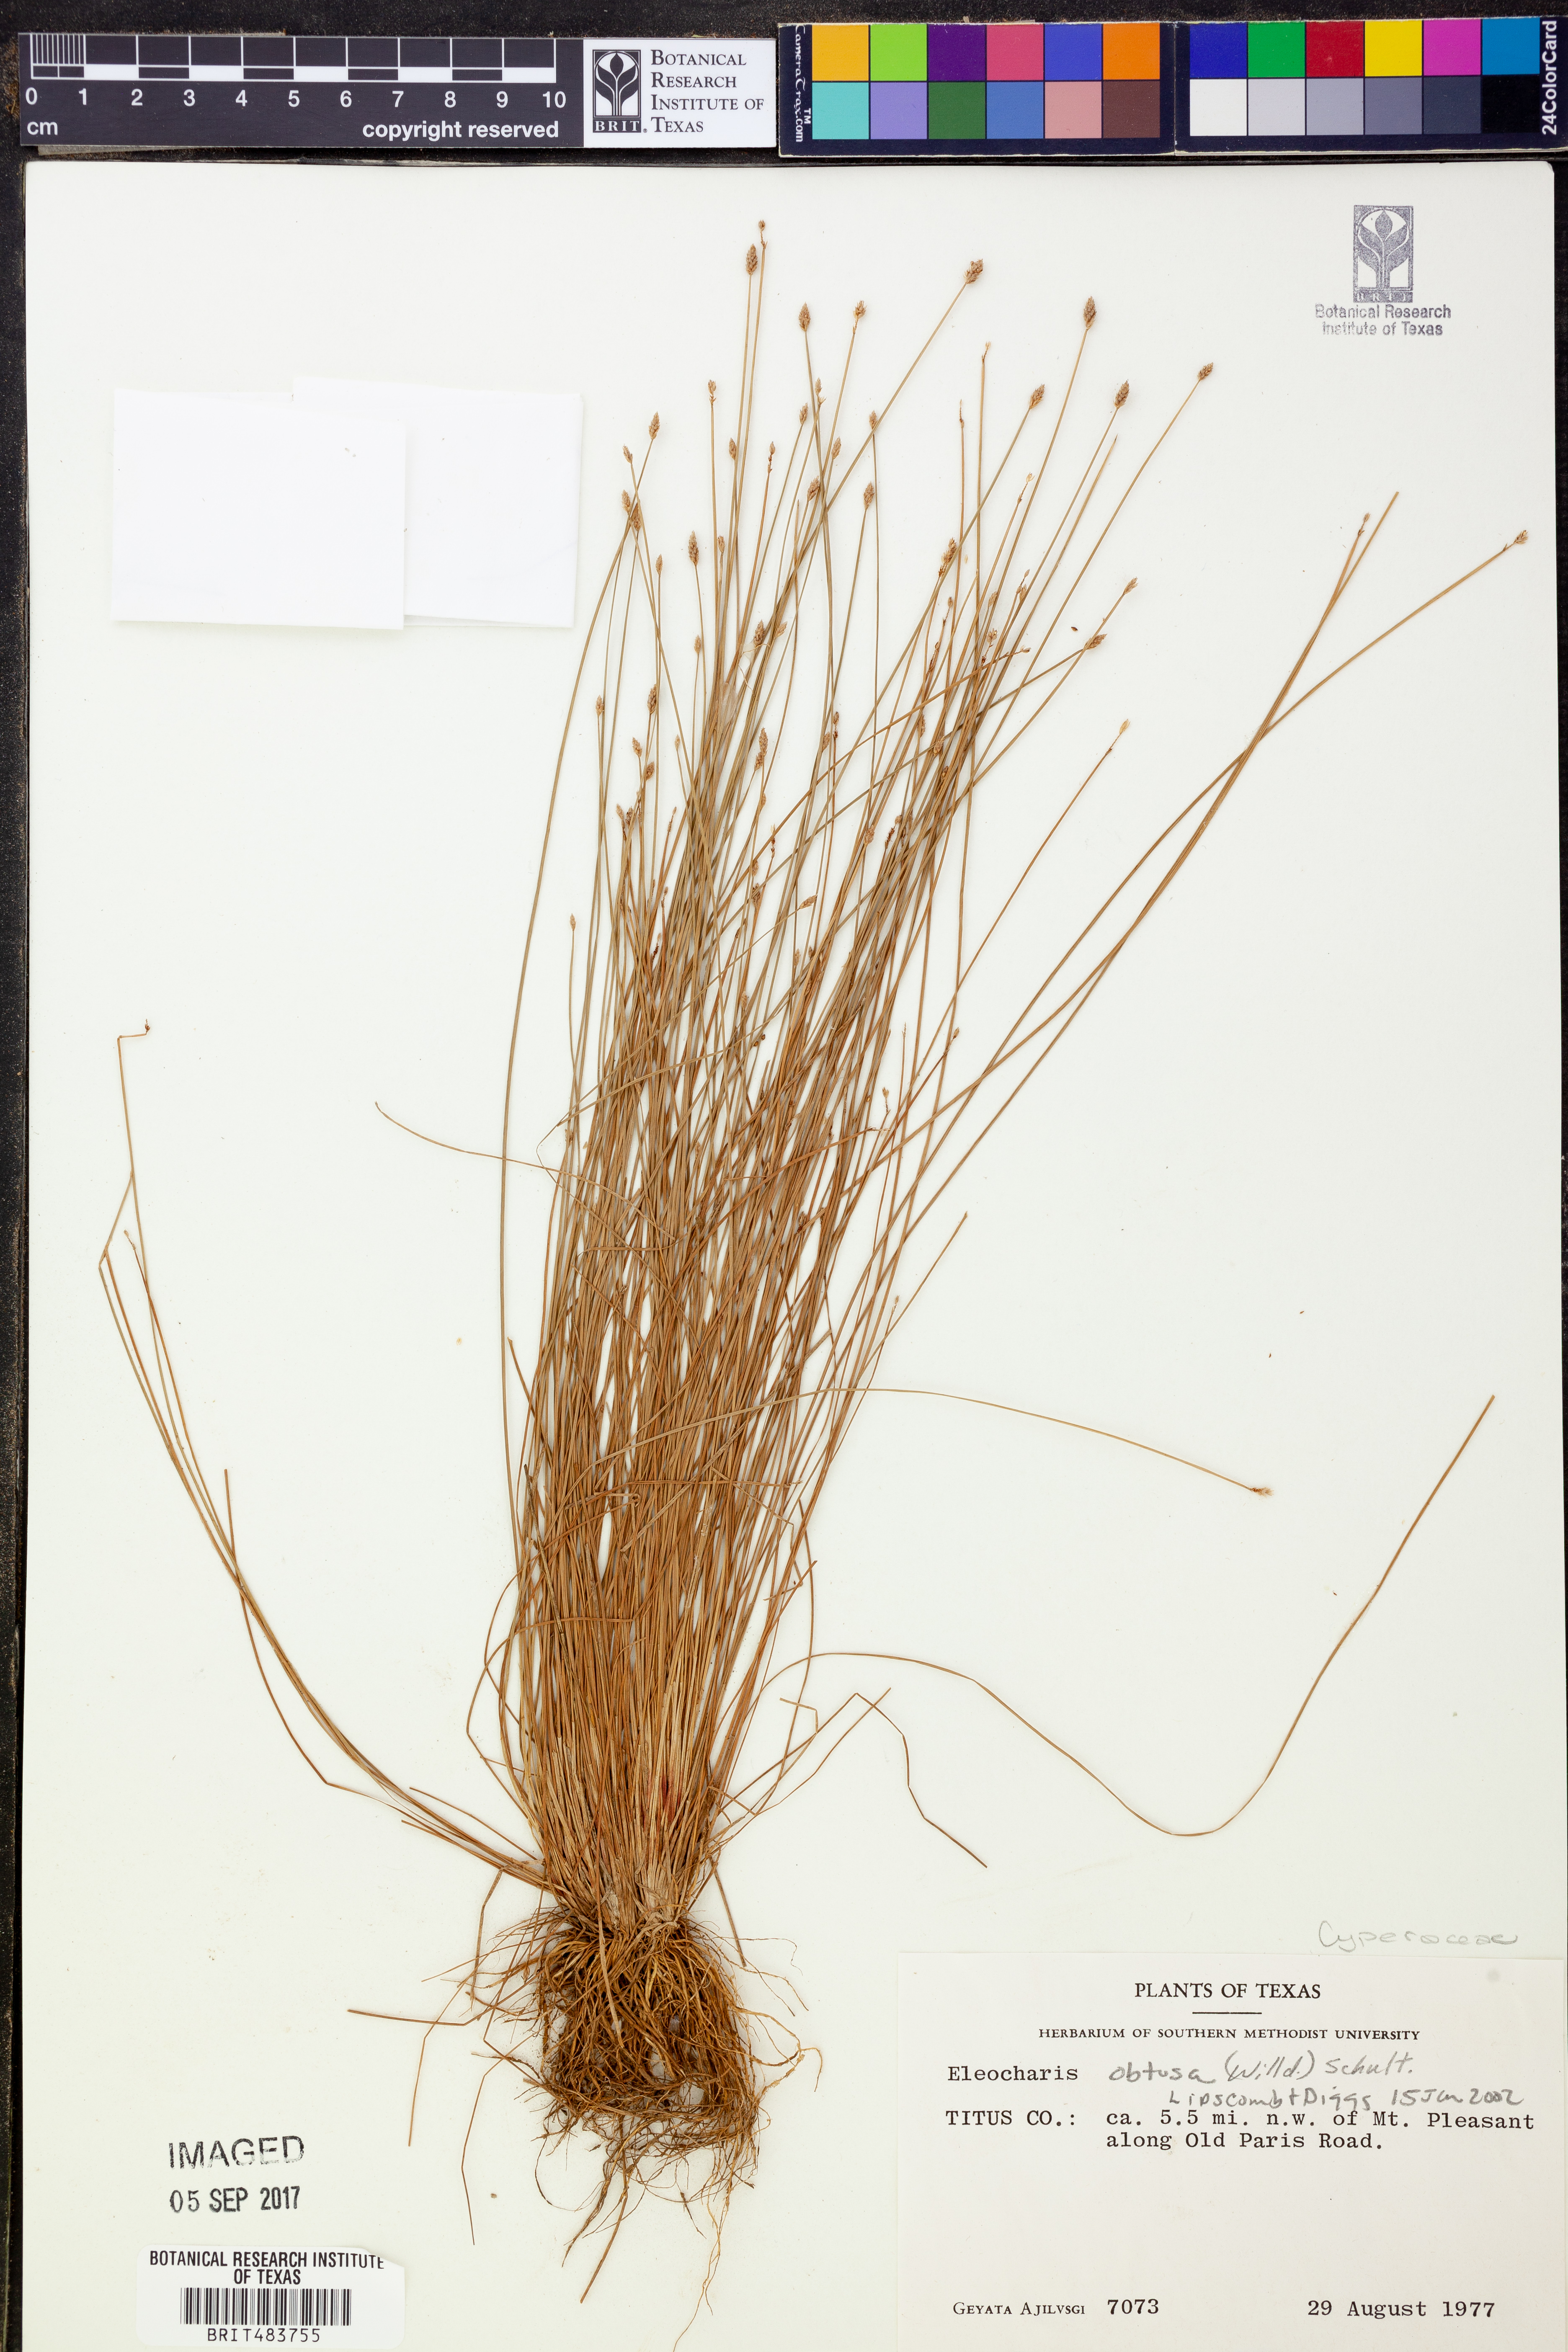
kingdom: Plantae
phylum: Tracheophyta
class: Liliopsida
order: Poales
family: Cyperaceae
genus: Eleocharis
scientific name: Eleocharis obtusa
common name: Blunt spikerush
